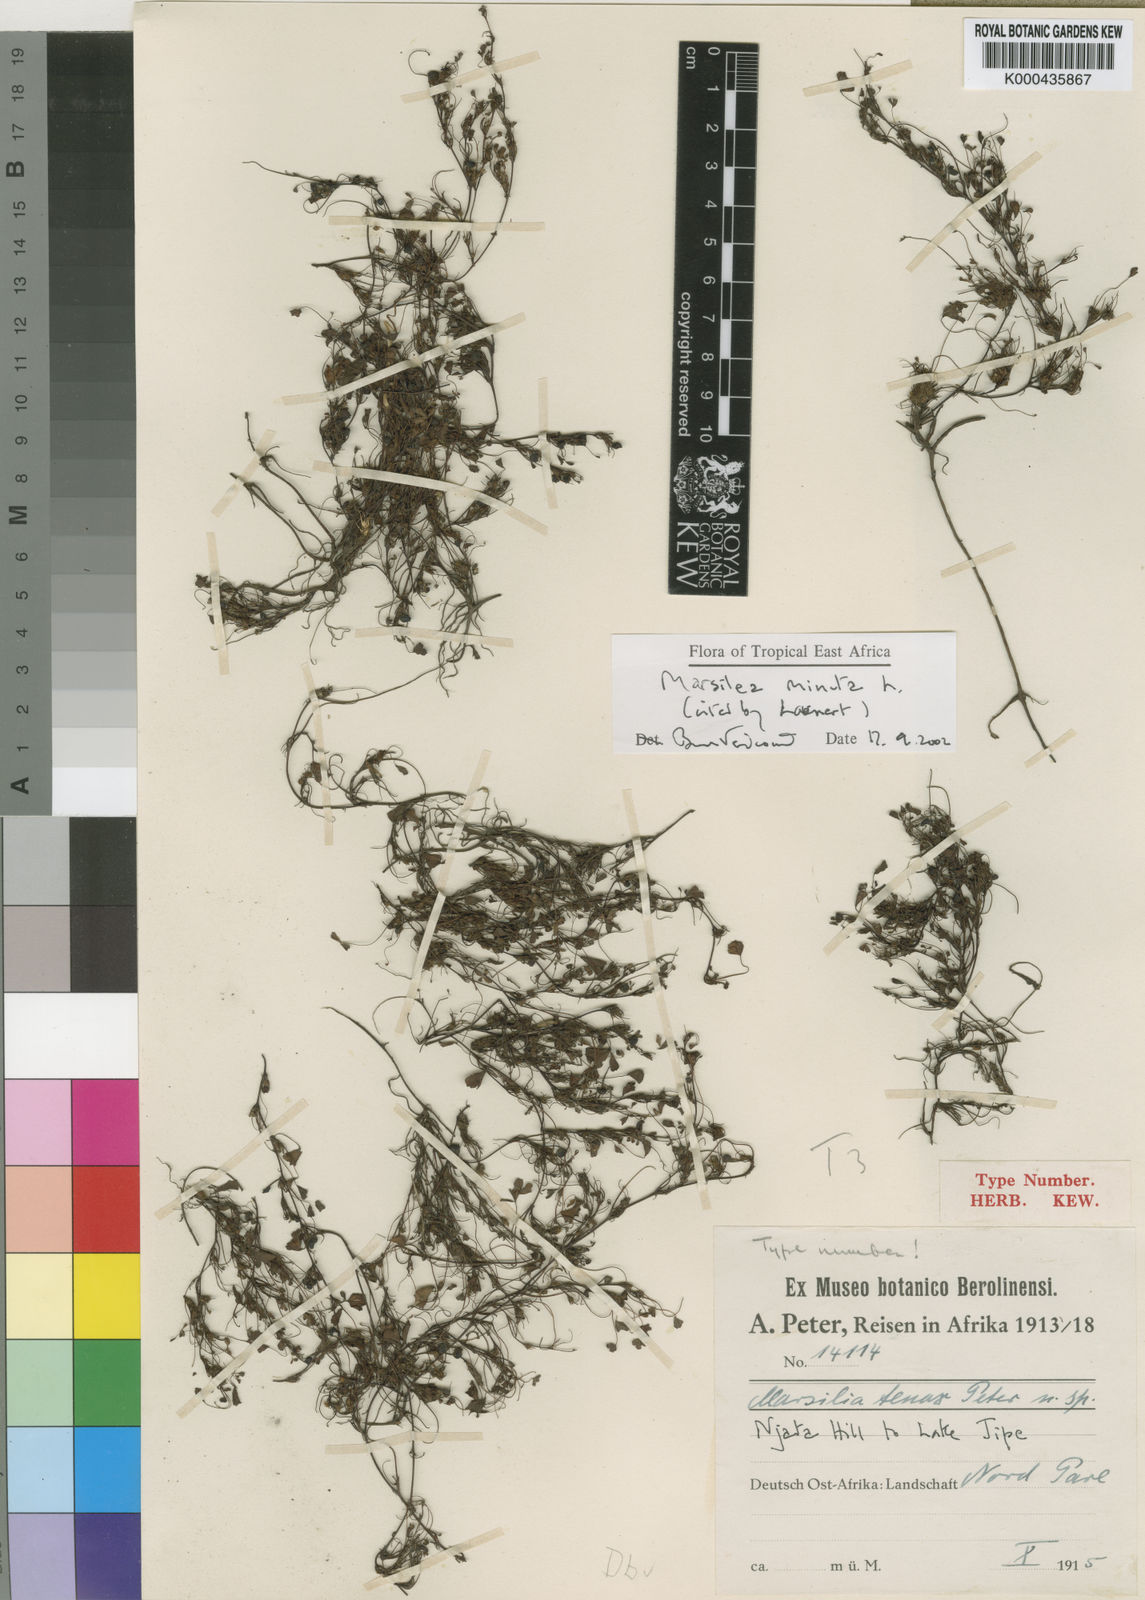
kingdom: Plantae
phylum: Tracheophyta
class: Polypodiopsida
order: Salviniales
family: Marsileaceae
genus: Marsilea
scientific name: Marsilea minuta
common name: Dwarf waterclover
